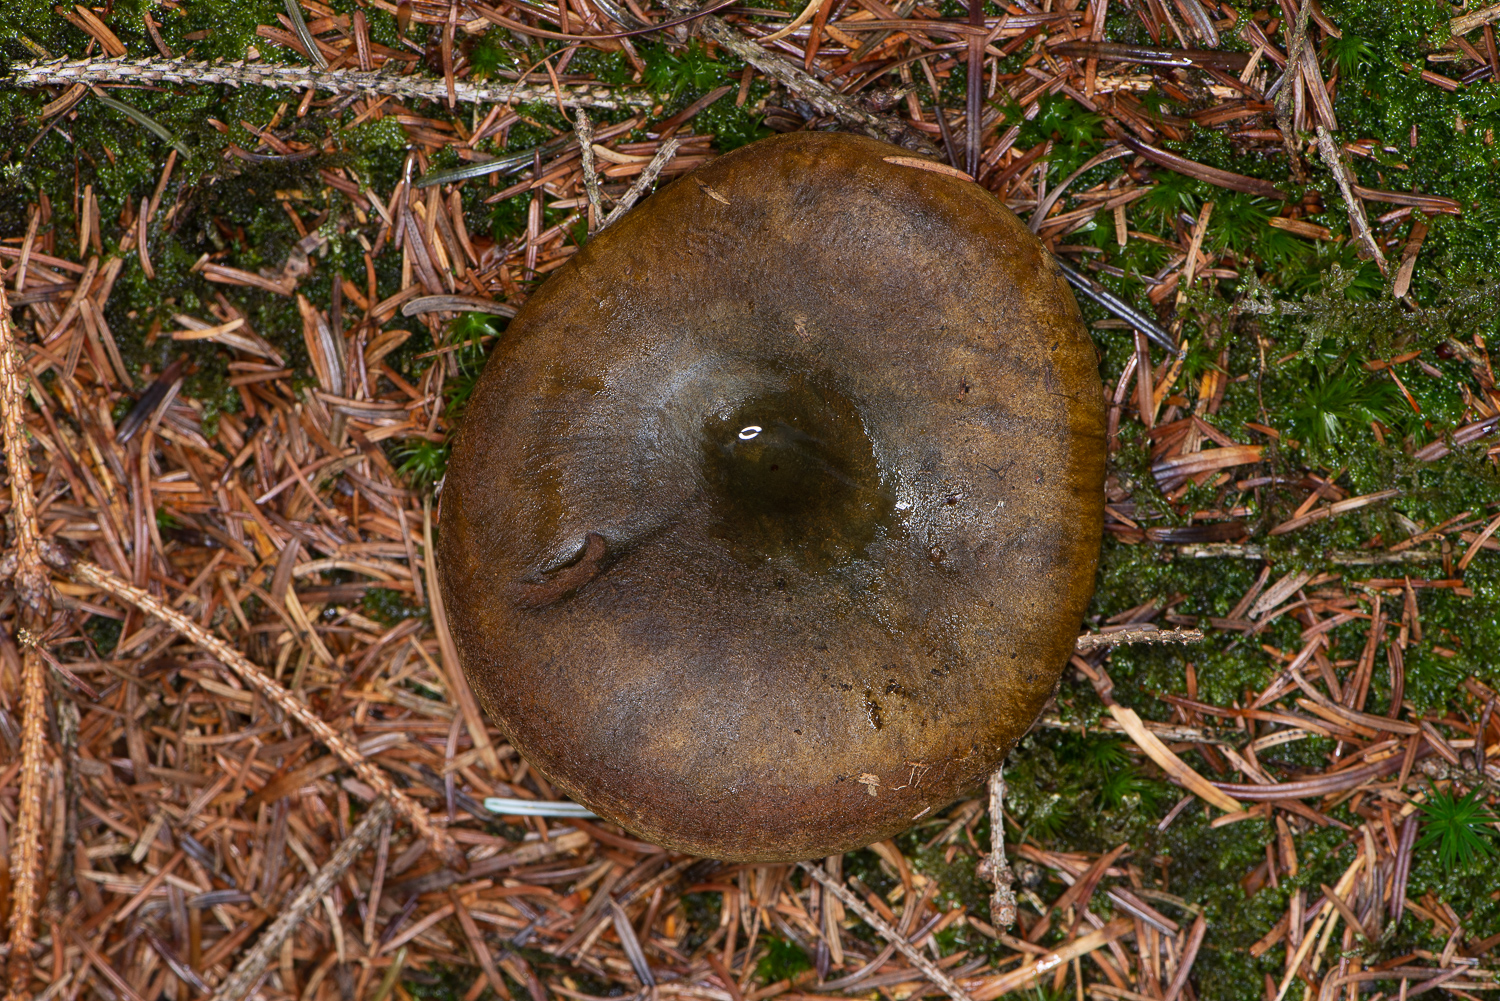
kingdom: Fungi
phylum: Basidiomycota
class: Agaricomycetes
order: Russulales
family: Russulaceae
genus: Lactarius
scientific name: Lactarius necator
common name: manddraber-mælkehat
